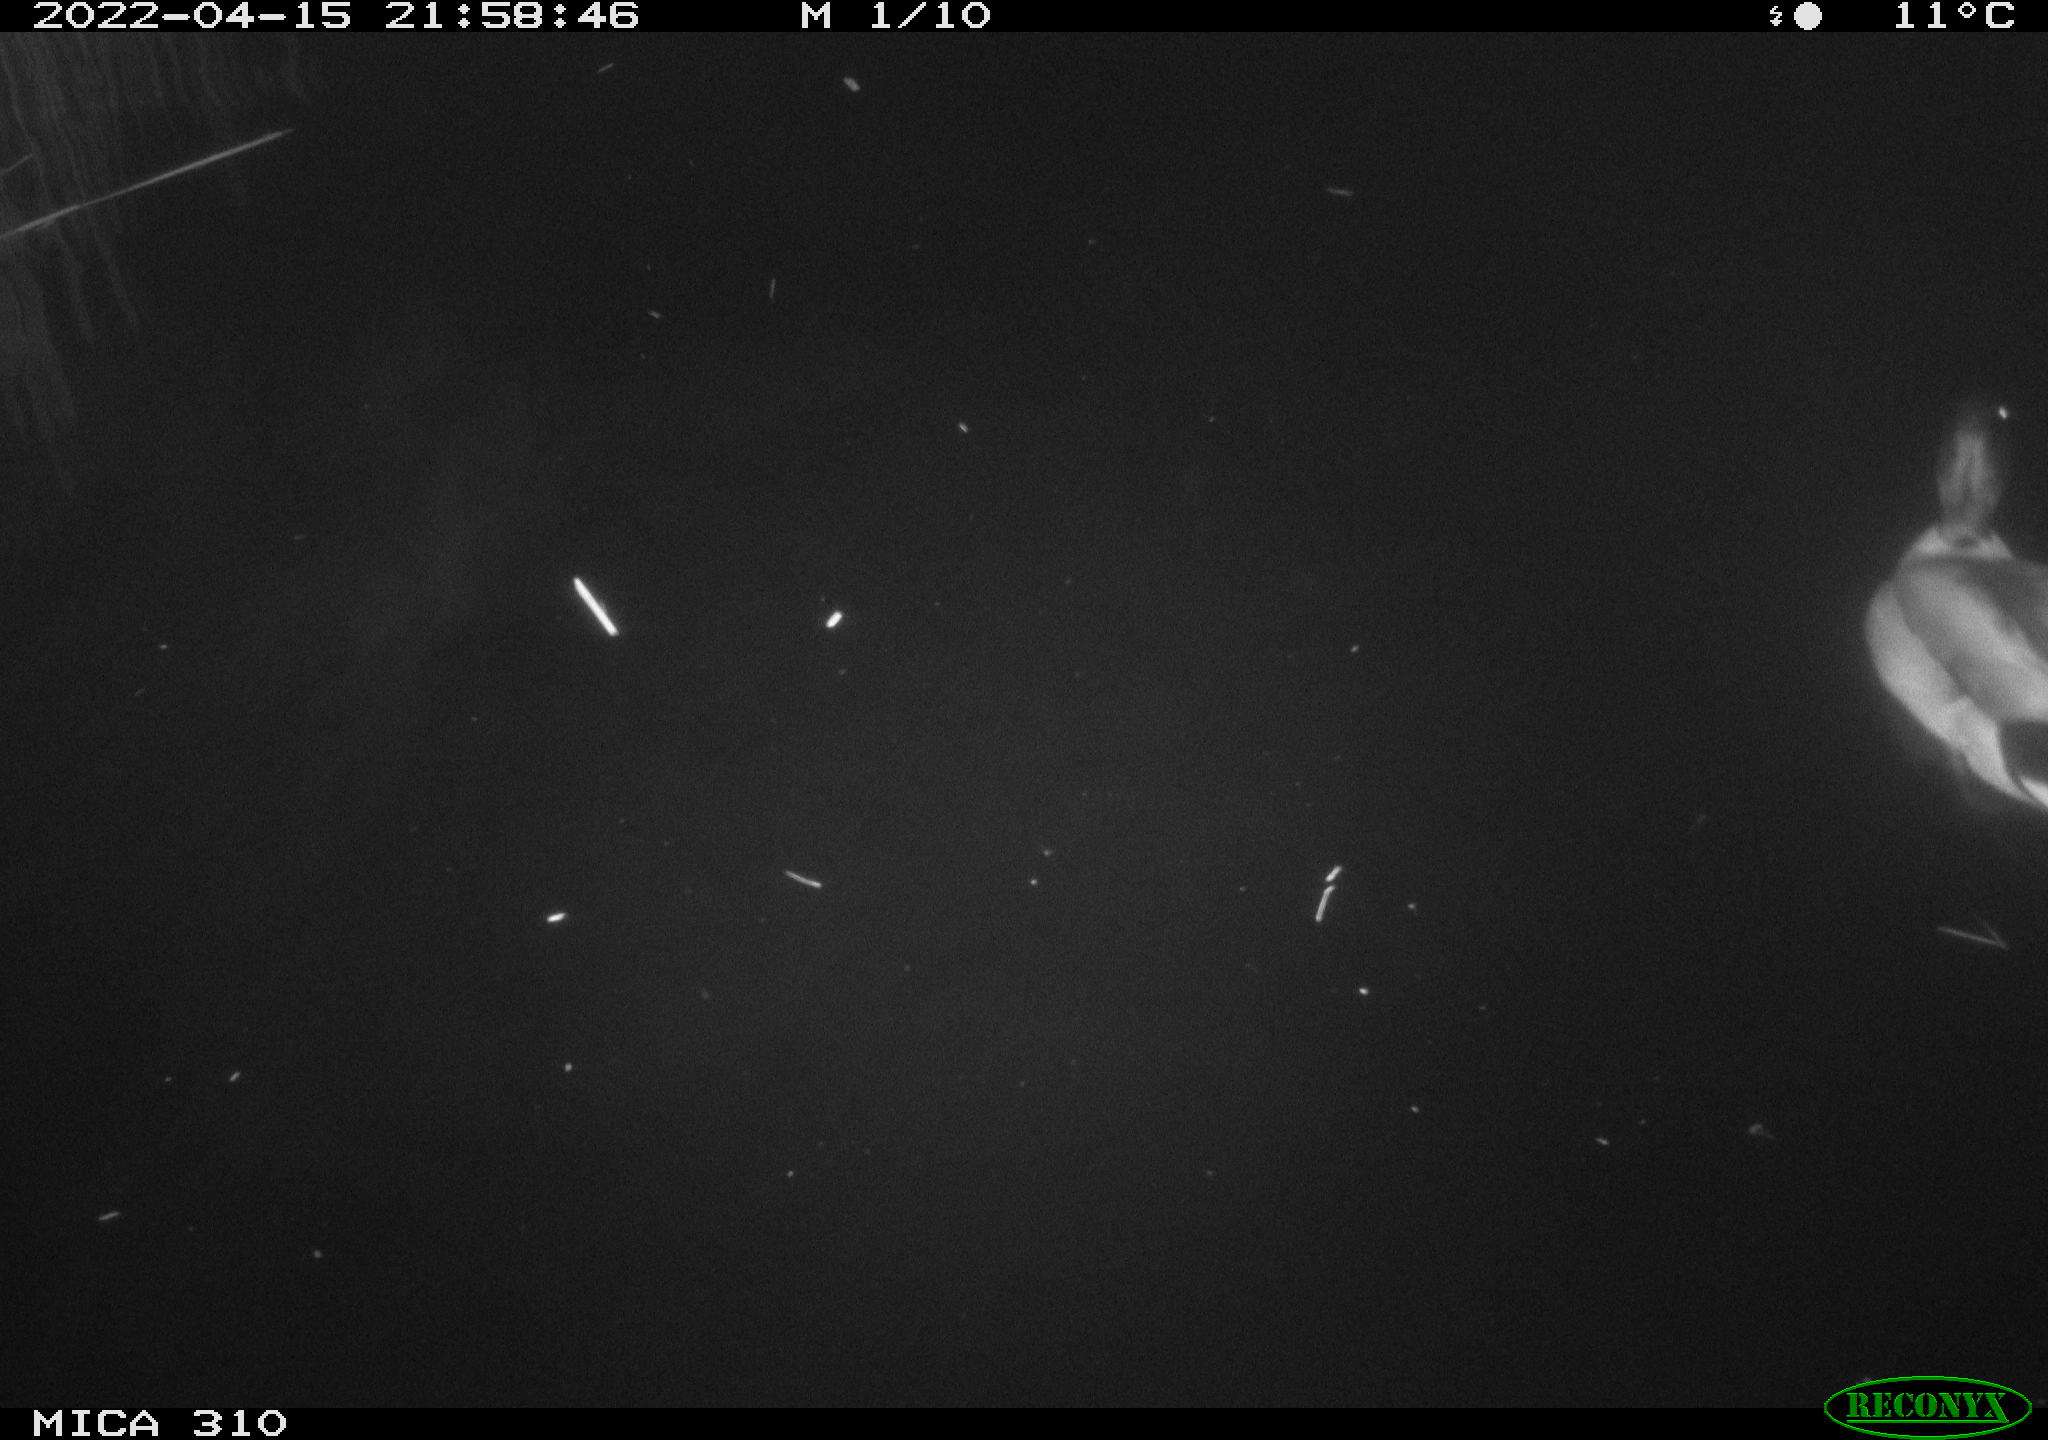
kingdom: Animalia
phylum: Chordata
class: Aves
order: Anseriformes
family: Anatidae
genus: Anas
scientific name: Anas platyrhynchos
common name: Mallard
